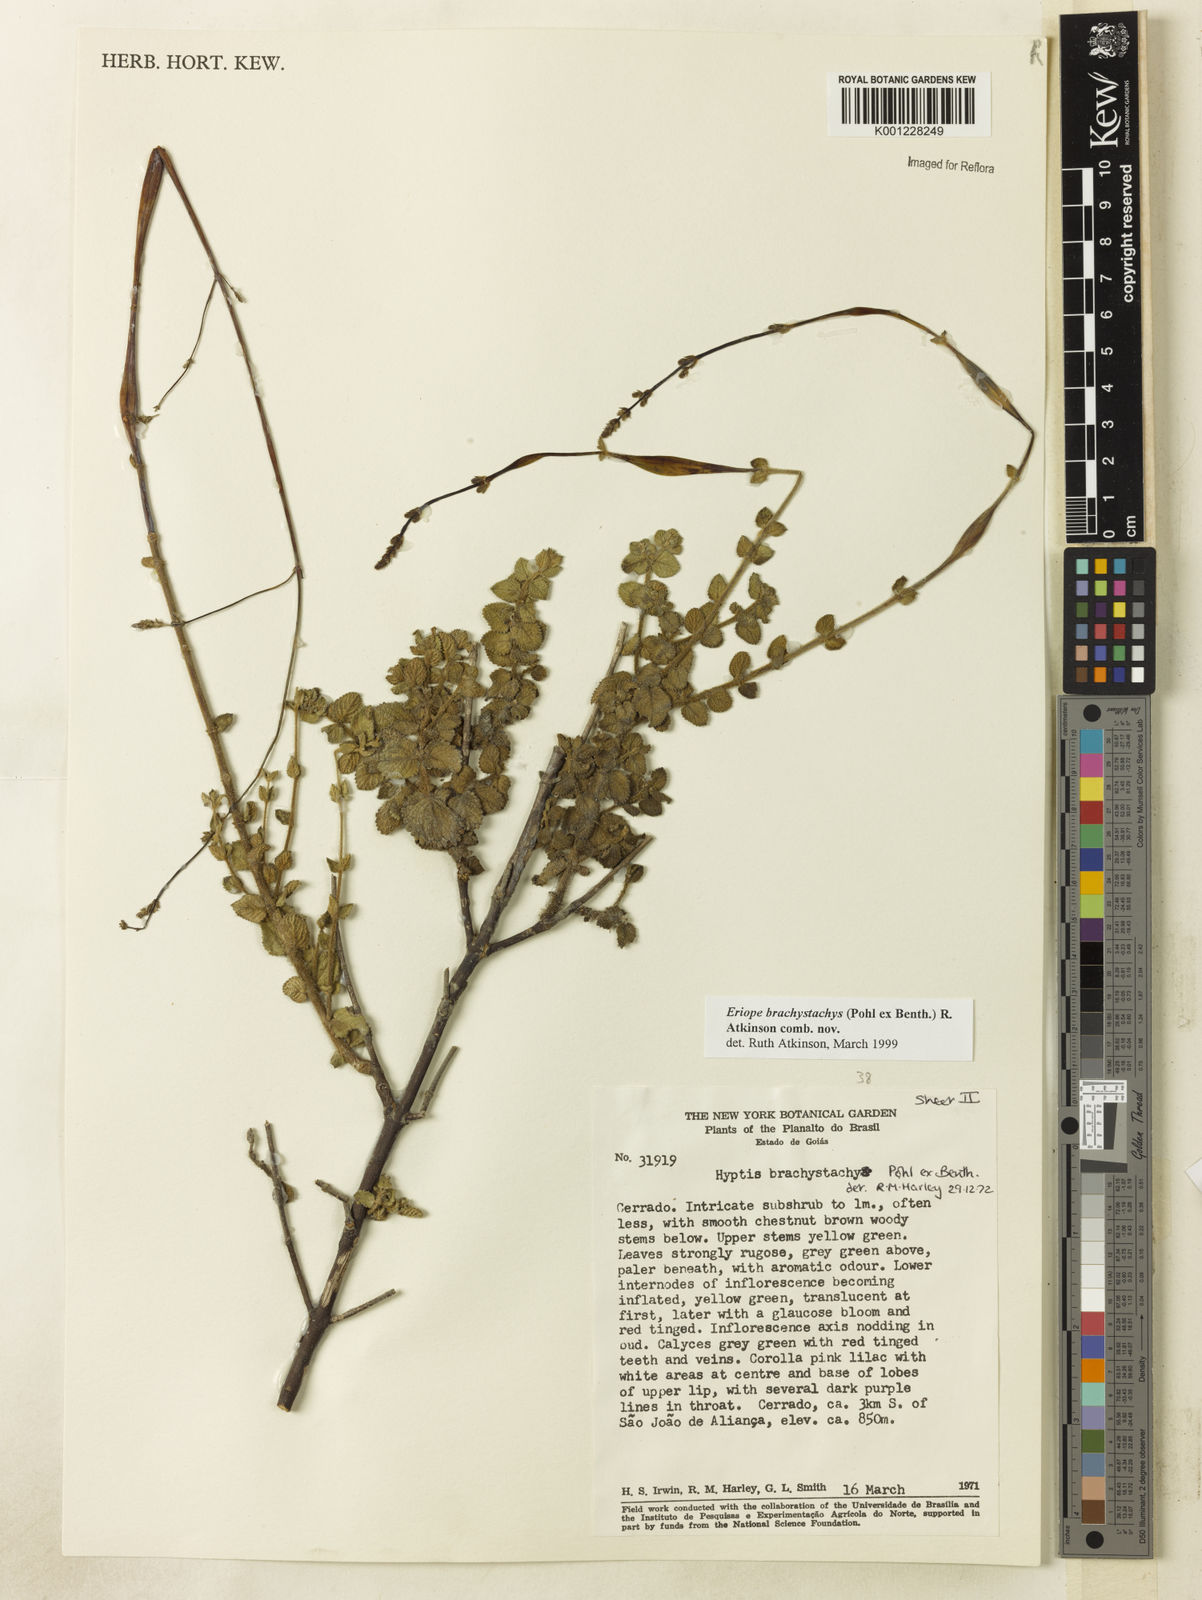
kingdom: Plantae
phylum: Tracheophyta
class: Magnoliopsida
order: Lamiales
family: Lamiaceae
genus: Hypenia
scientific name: Hypenia brachystachys
